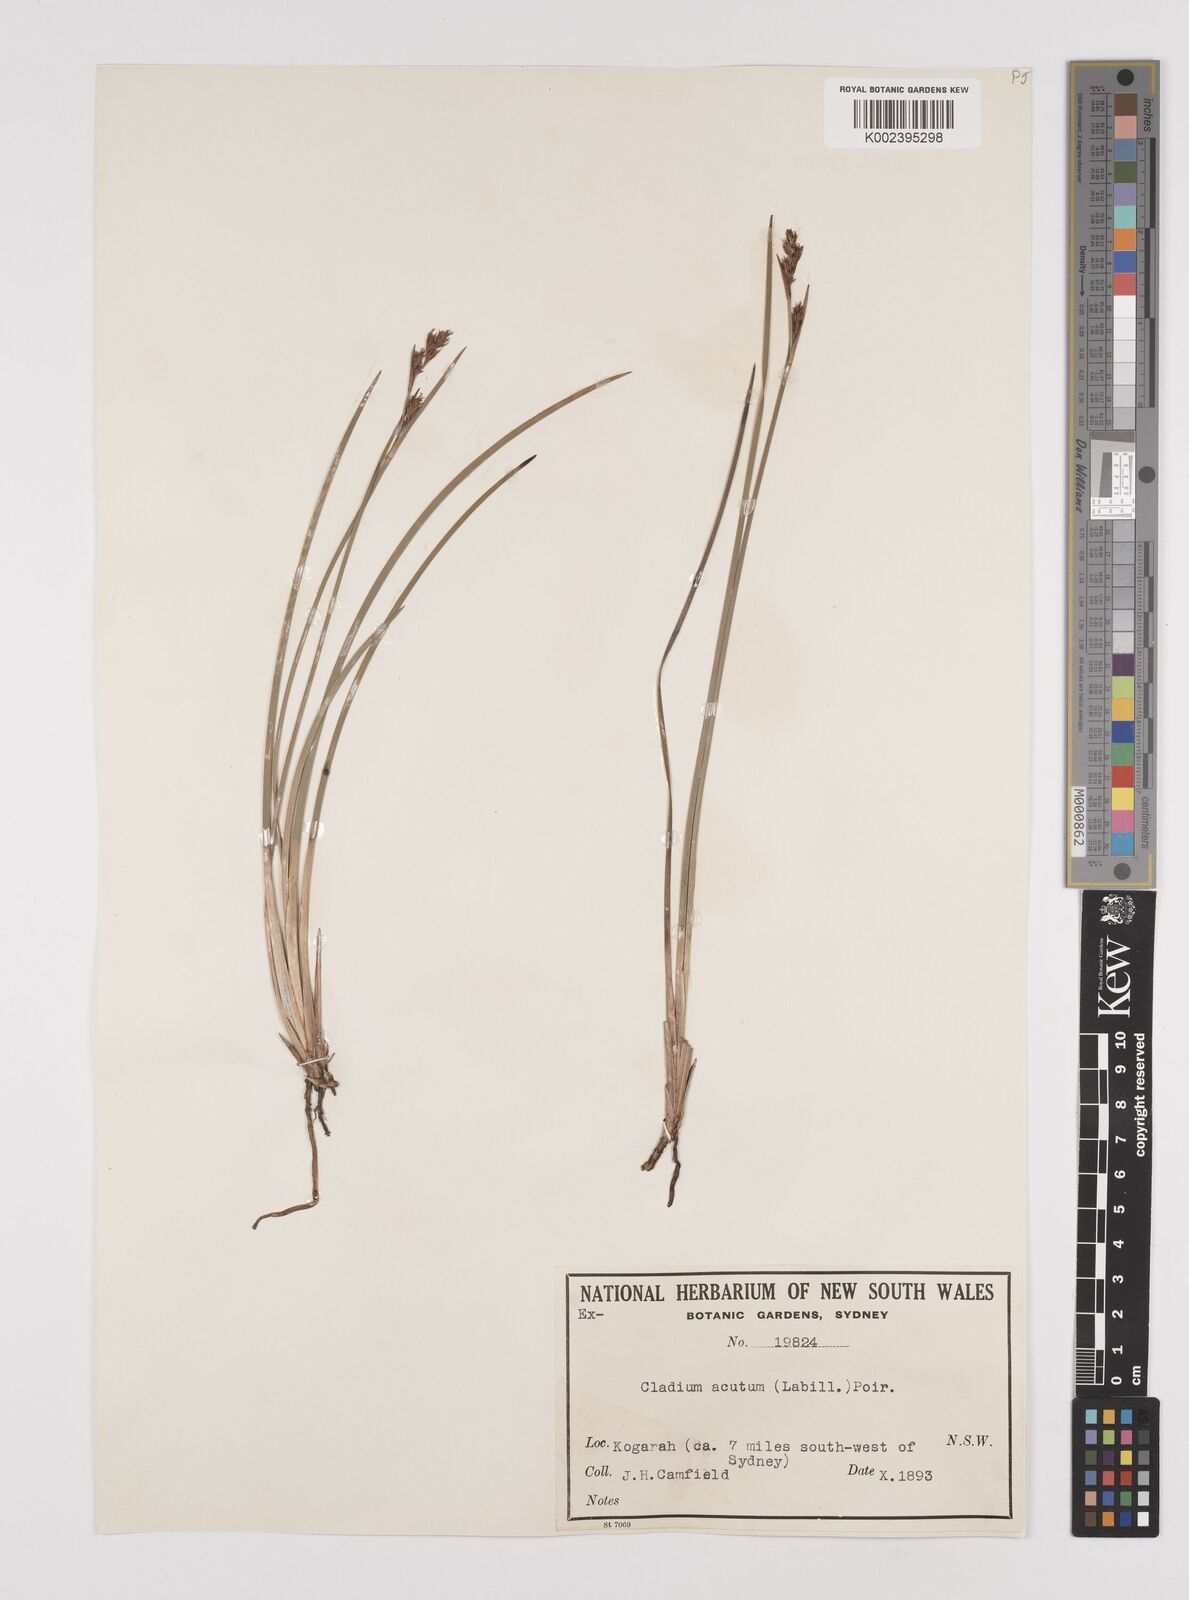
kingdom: Plantae
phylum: Tracheophyta
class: Liliopsida
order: Poales
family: Cyperaceae
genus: Machaerina
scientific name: Machaerina acuta
